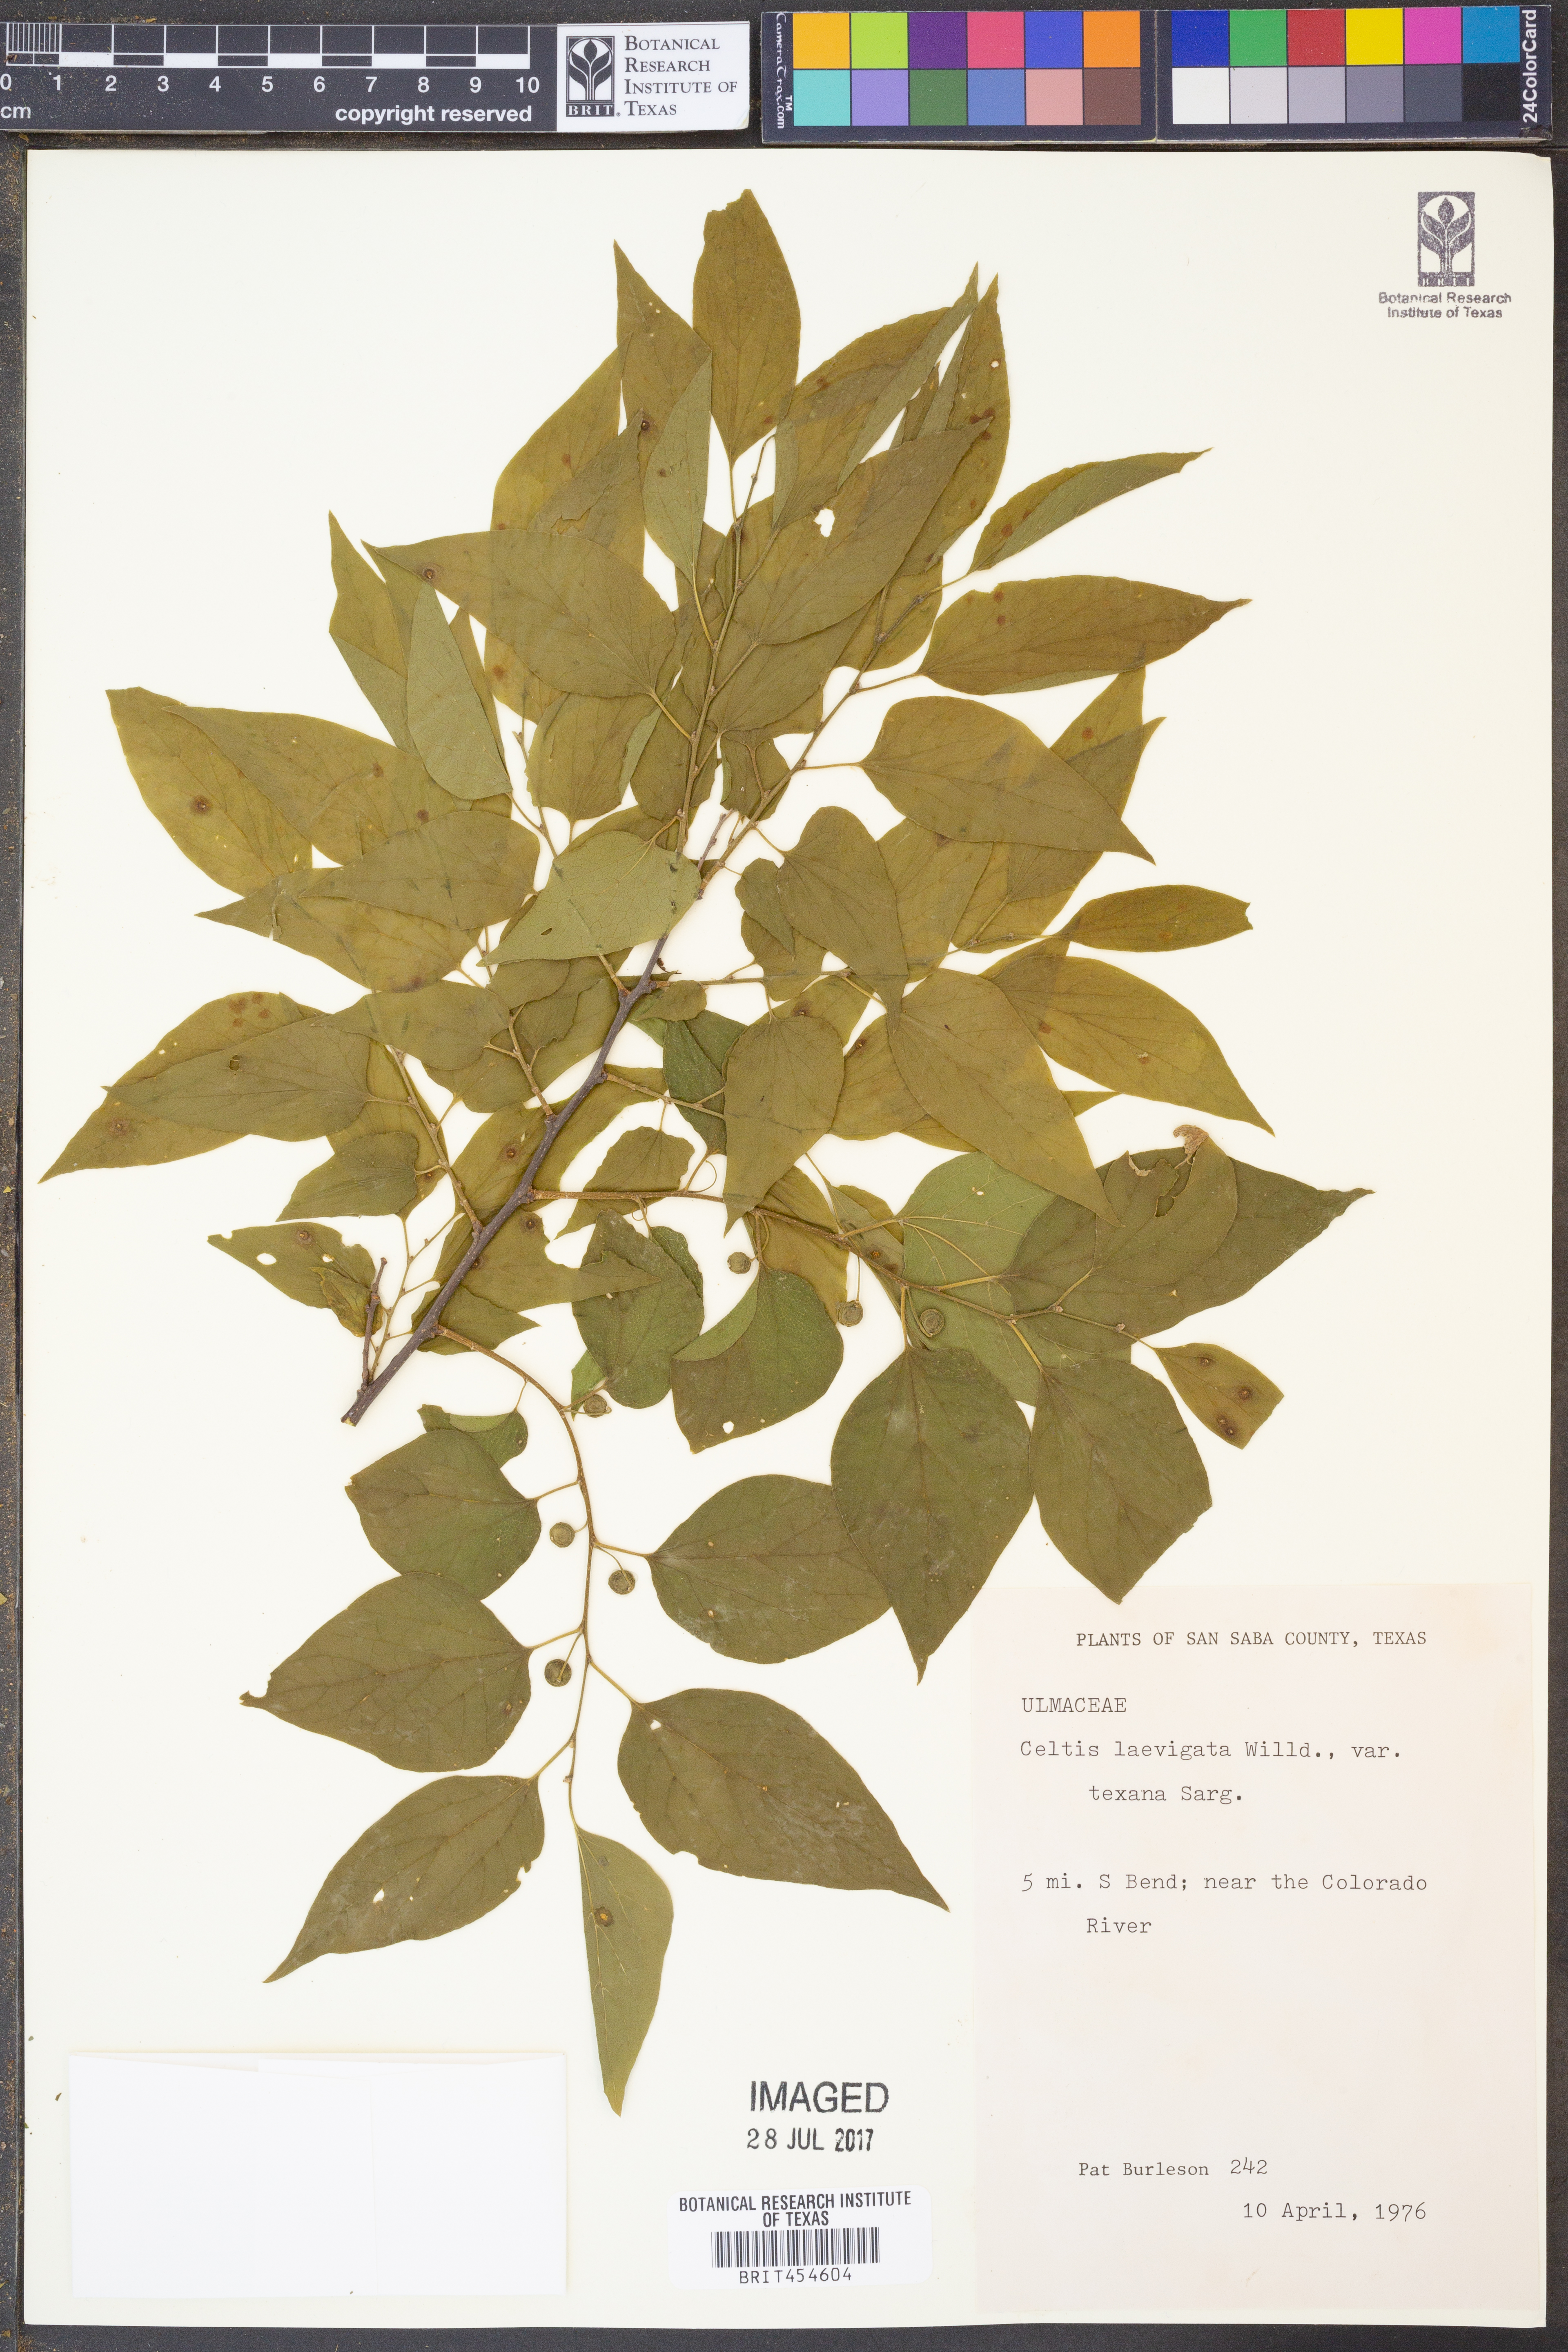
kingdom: Plantae
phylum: Tracheophyta
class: Magnoliopsida
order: Rosales
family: Cannabaceae
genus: Celtis
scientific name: Celtis laevigata
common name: Sugarberry
